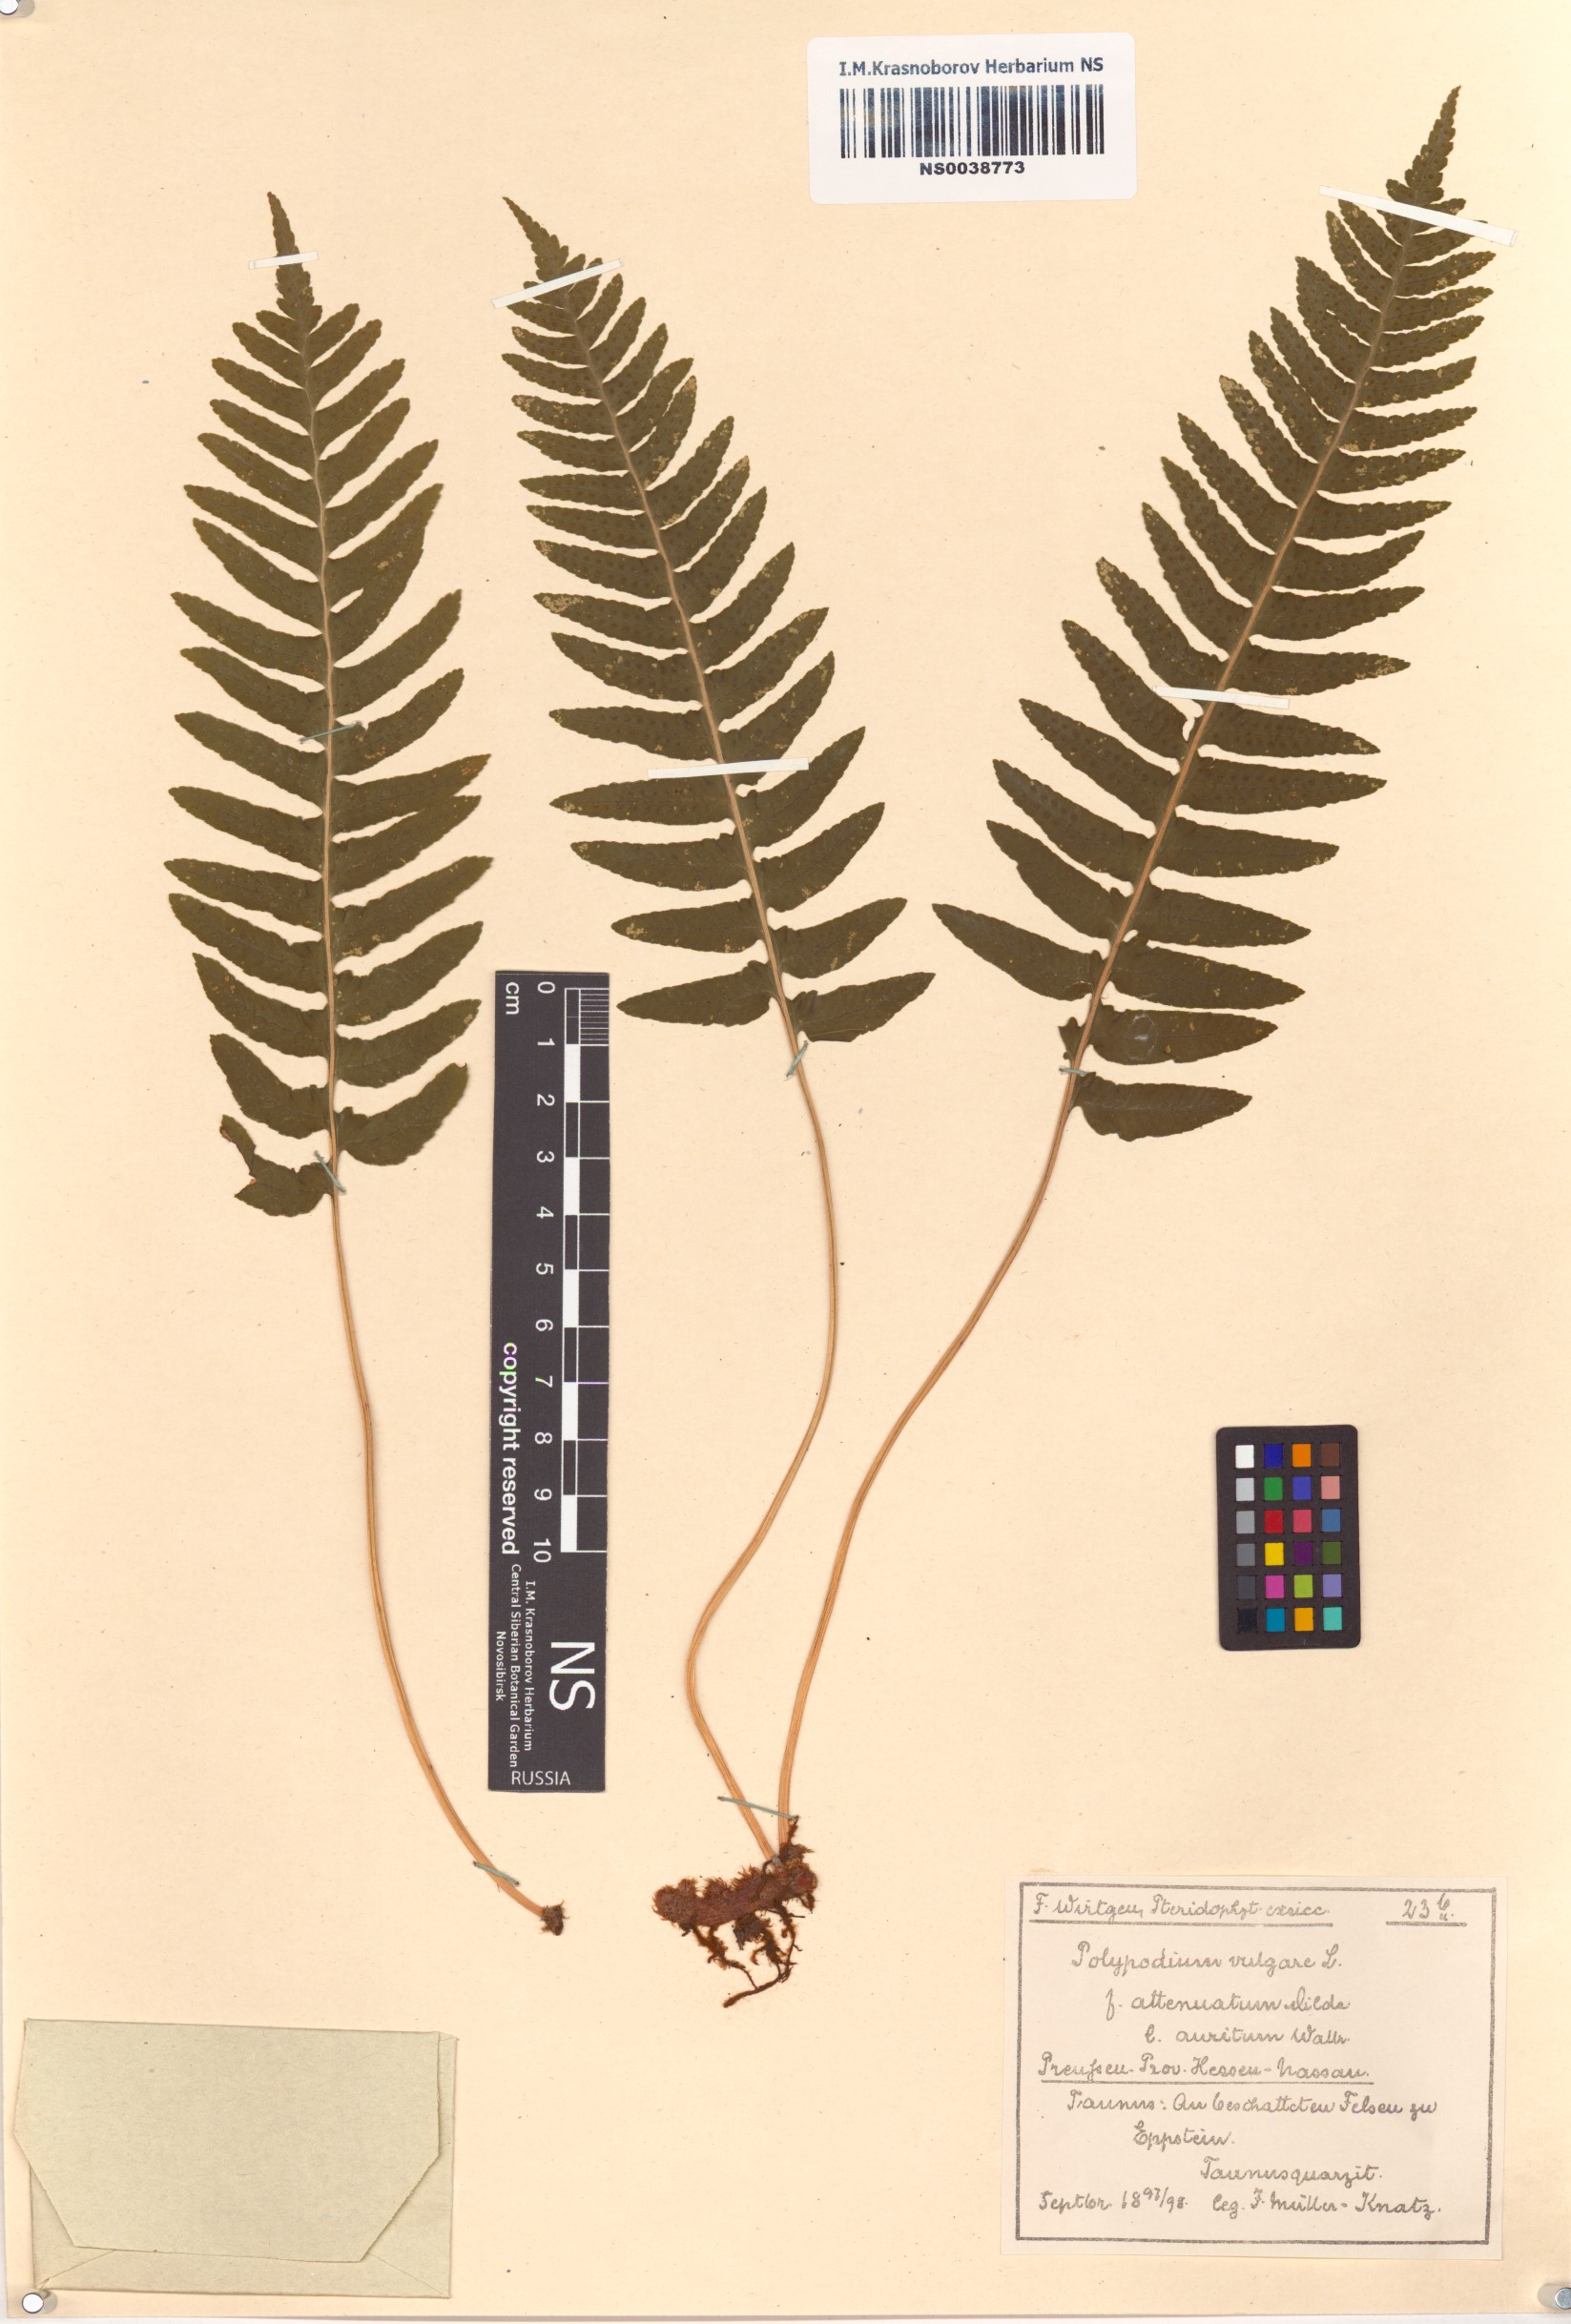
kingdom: Plantae
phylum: Tracheophyta
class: Polypodiopsida
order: Polypodiales
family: Polypodiaceae
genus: Polypodium
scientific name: Polypodium vulgare
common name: Common polypody
